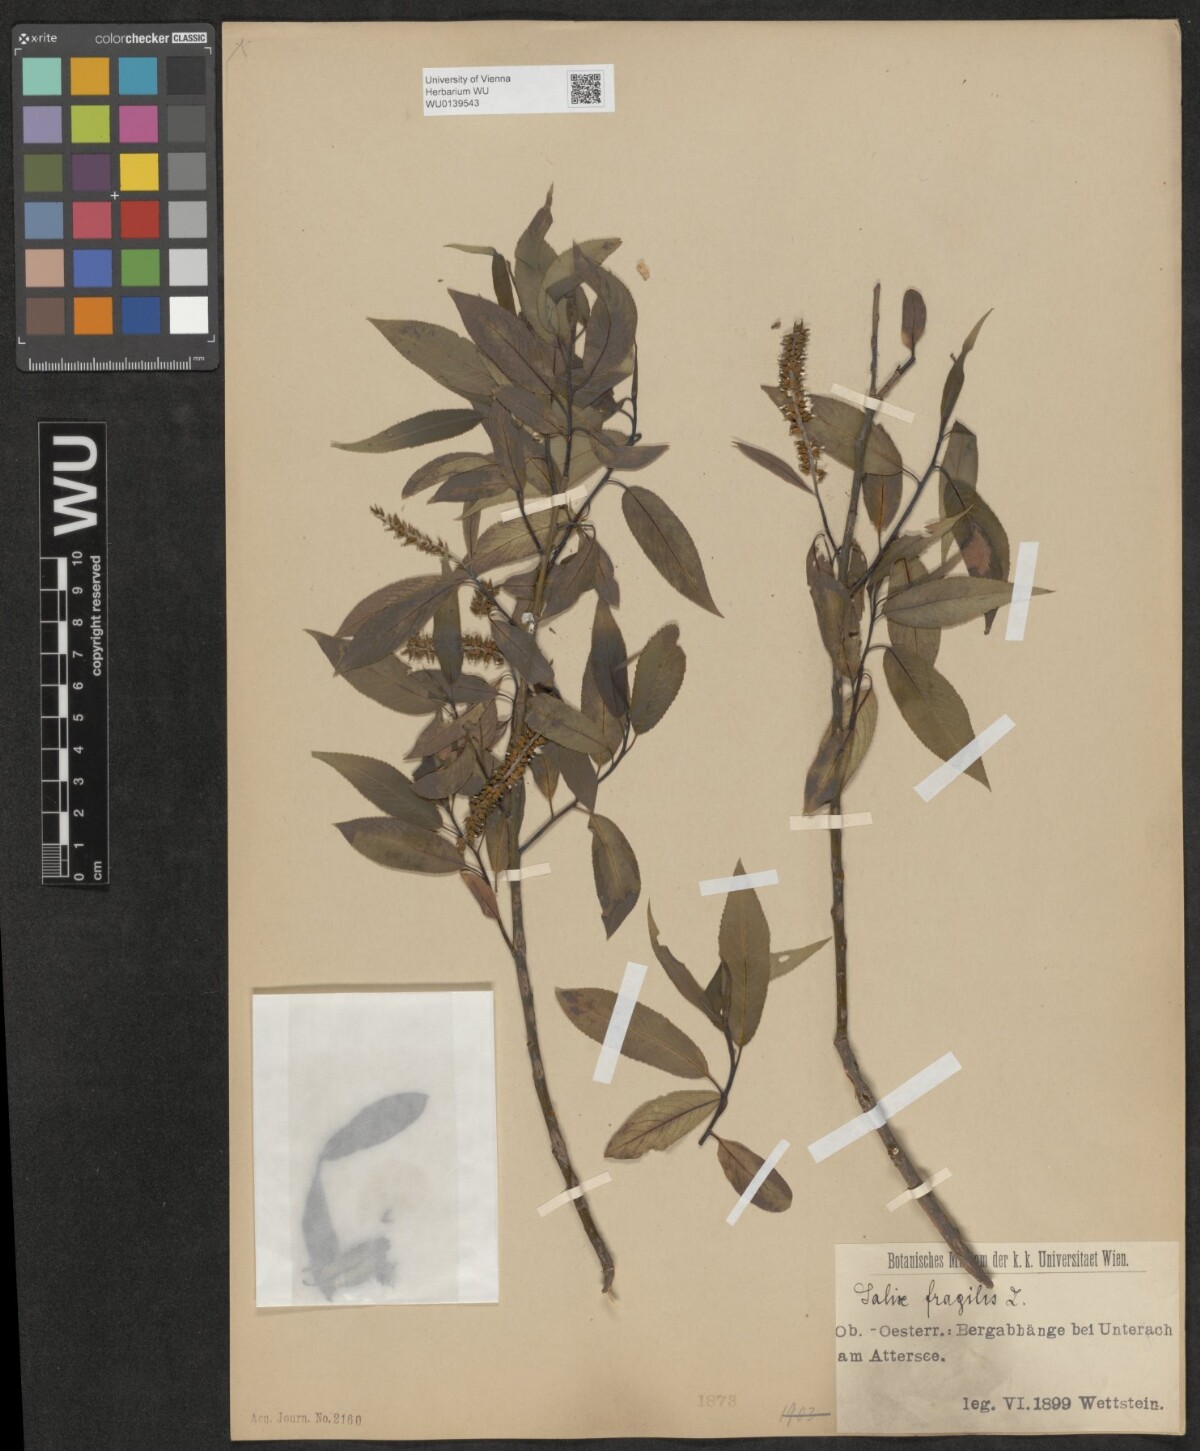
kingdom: Plantae
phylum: Tracheophyta
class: Magnoliopsida
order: Malpighiales
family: Salicaceae
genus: Salix
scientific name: Salix rubens
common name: Hybrid crack willow
